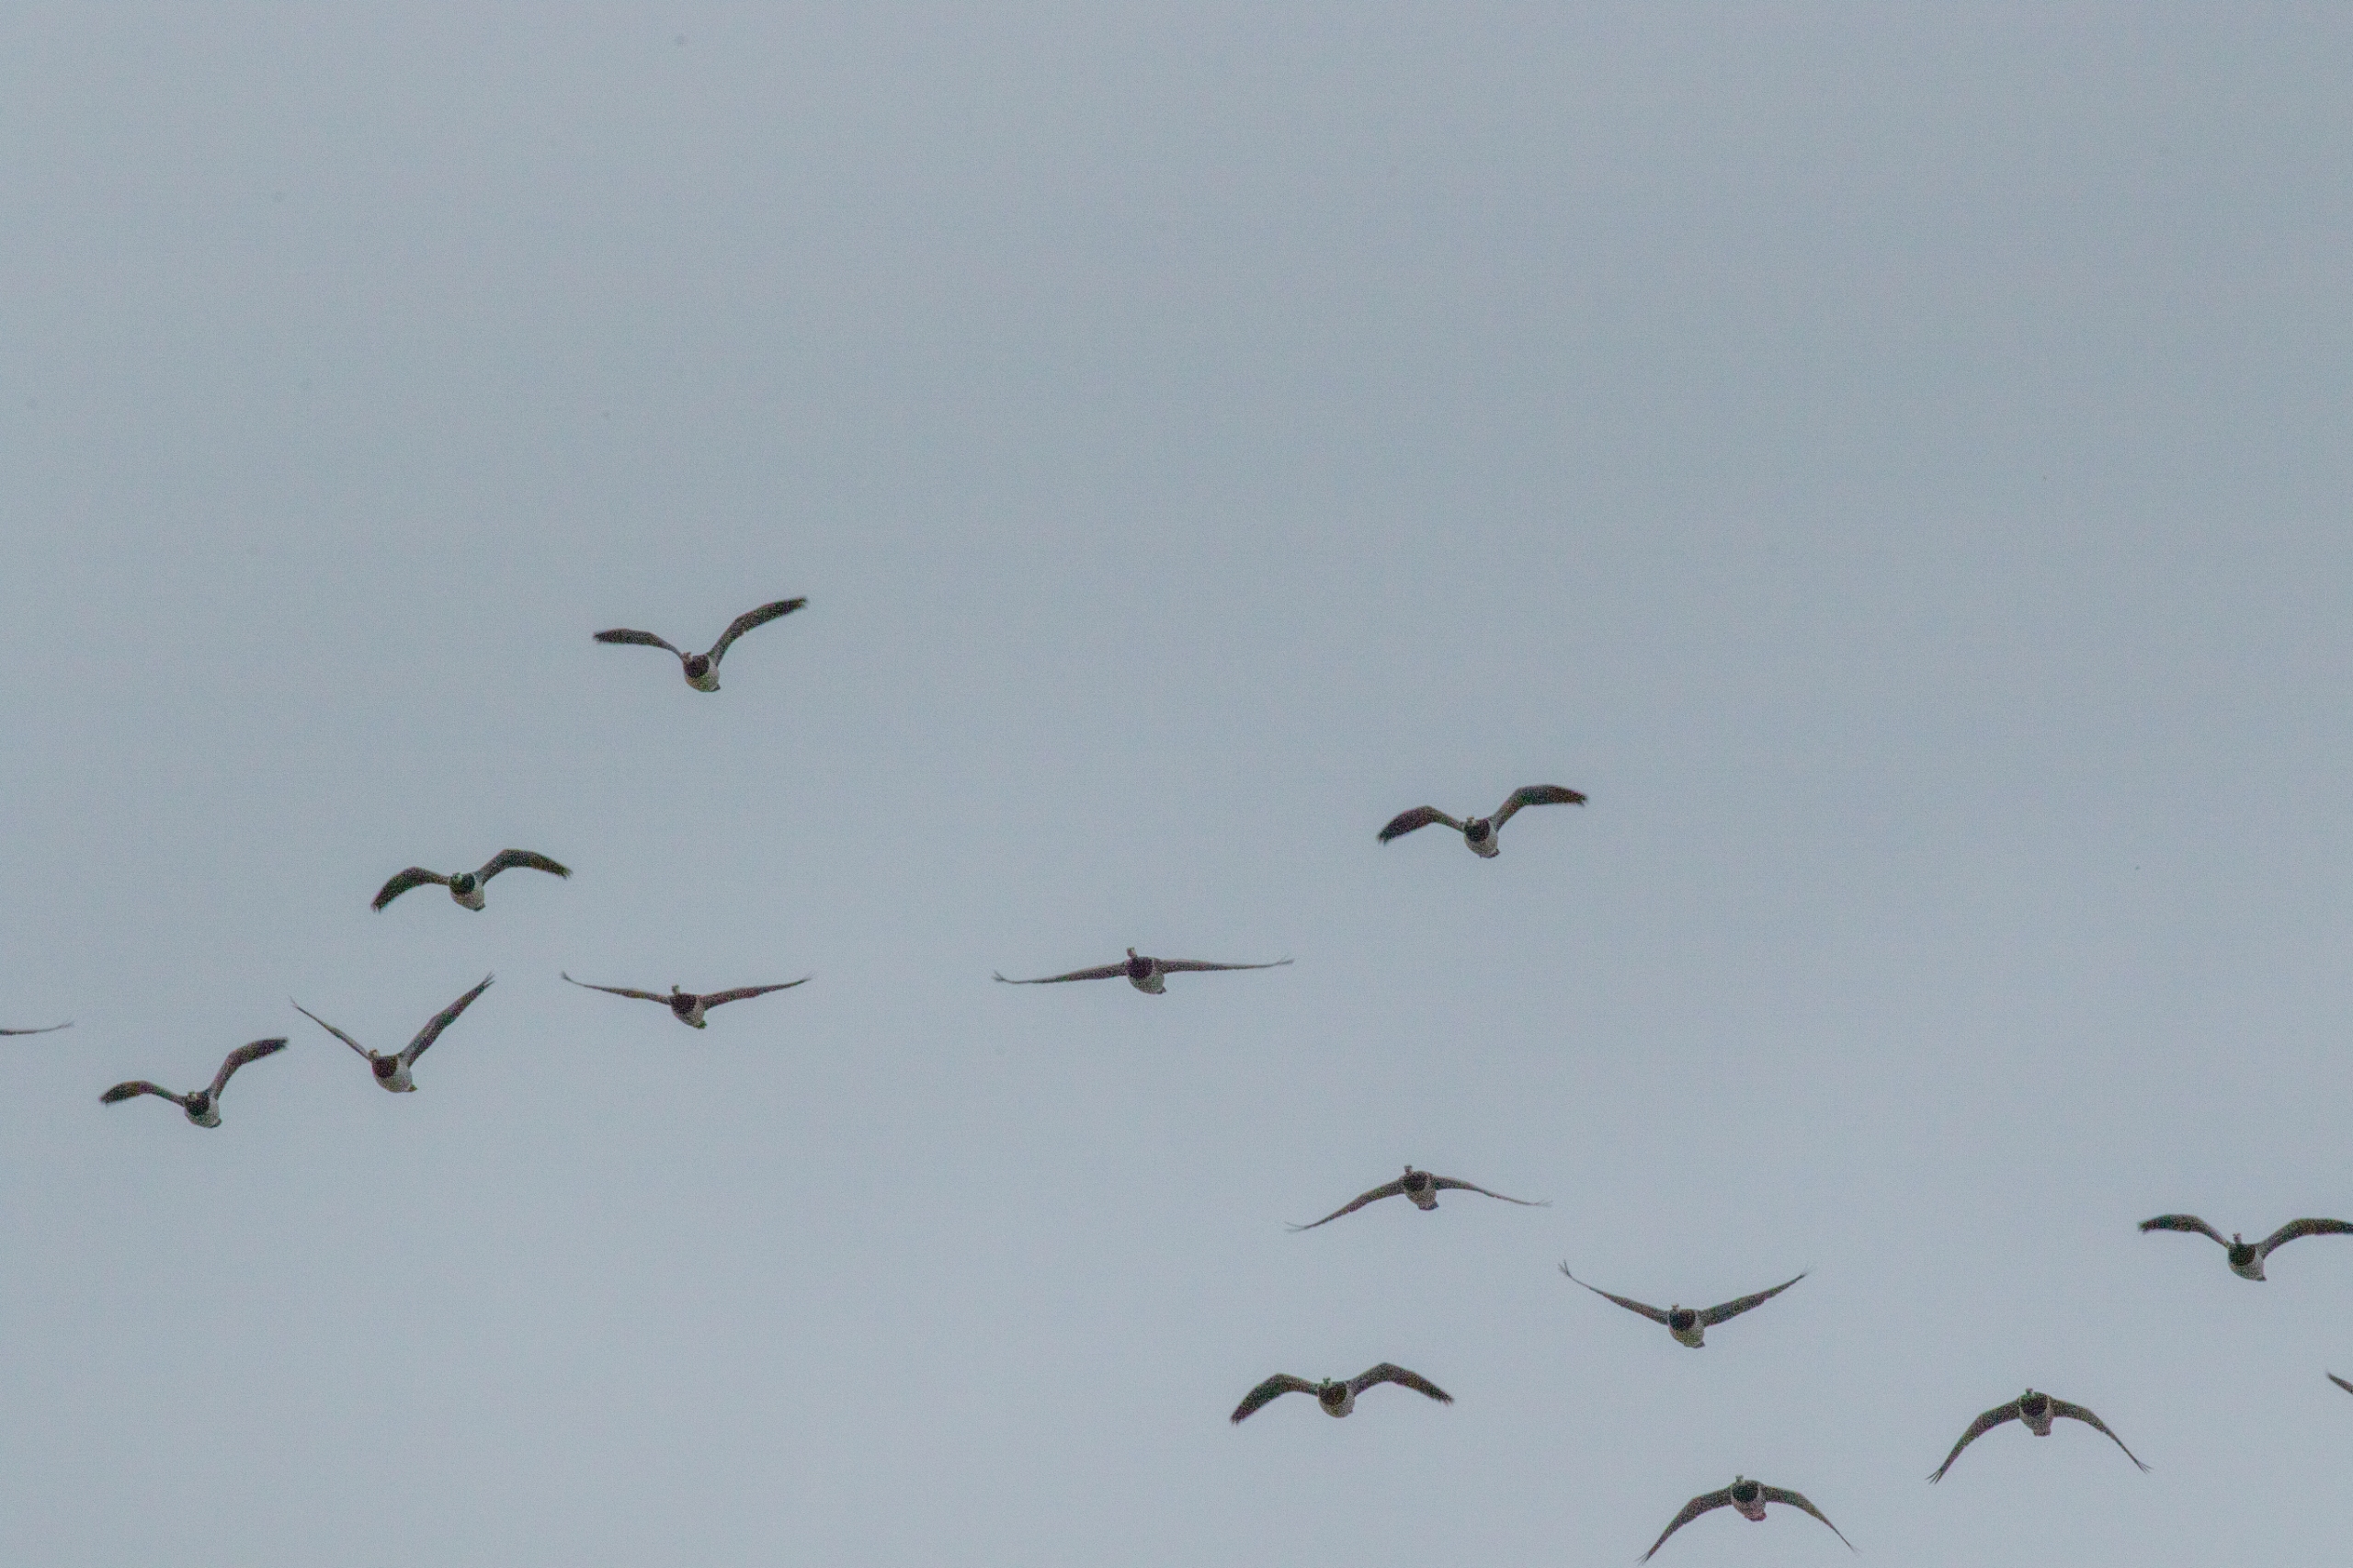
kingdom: Animalia
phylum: Chordata
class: Aves
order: Anseriformes
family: Anatidae
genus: Branta
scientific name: Branta leucopsis
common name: Bramgås
